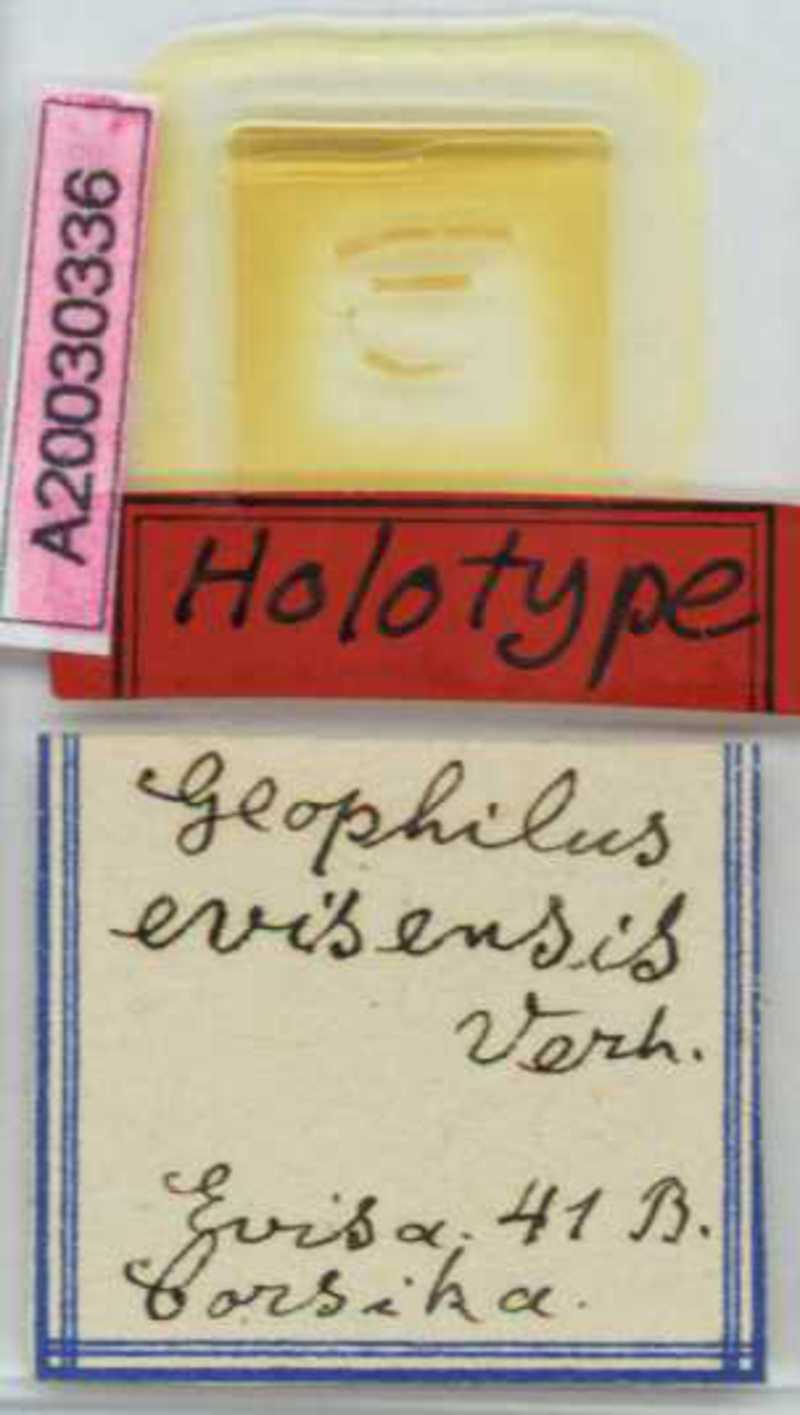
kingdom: Animalia
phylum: Arthropoda
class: Chilopoda
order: Geophilomorpha
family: Geophilidae
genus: Geophilus
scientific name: Geophilus gavoyi
